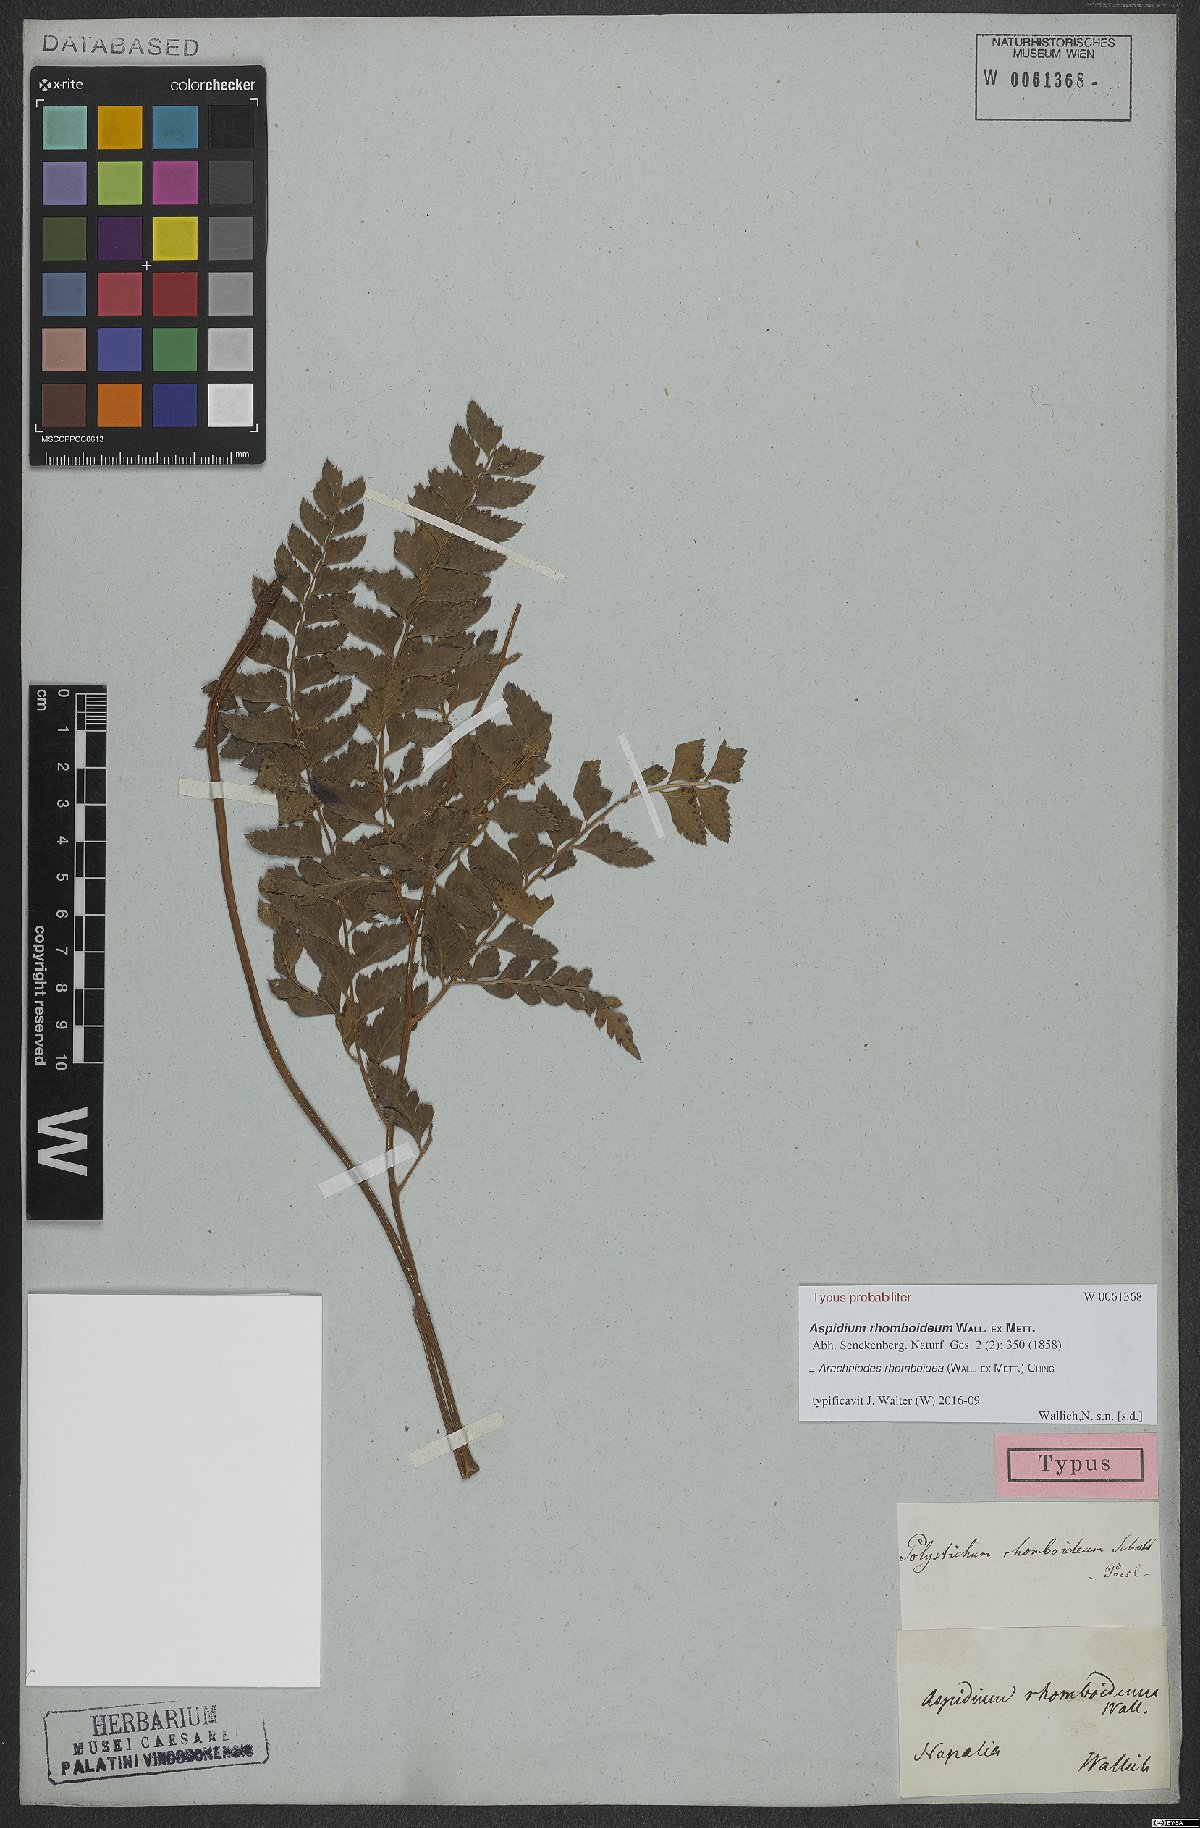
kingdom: Plantae
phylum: Tracheophyta
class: Polypodiopsida
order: Polypodiales
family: Dryopteridaceae
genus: Arachniodes
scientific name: Arachniodes rhomboidea
